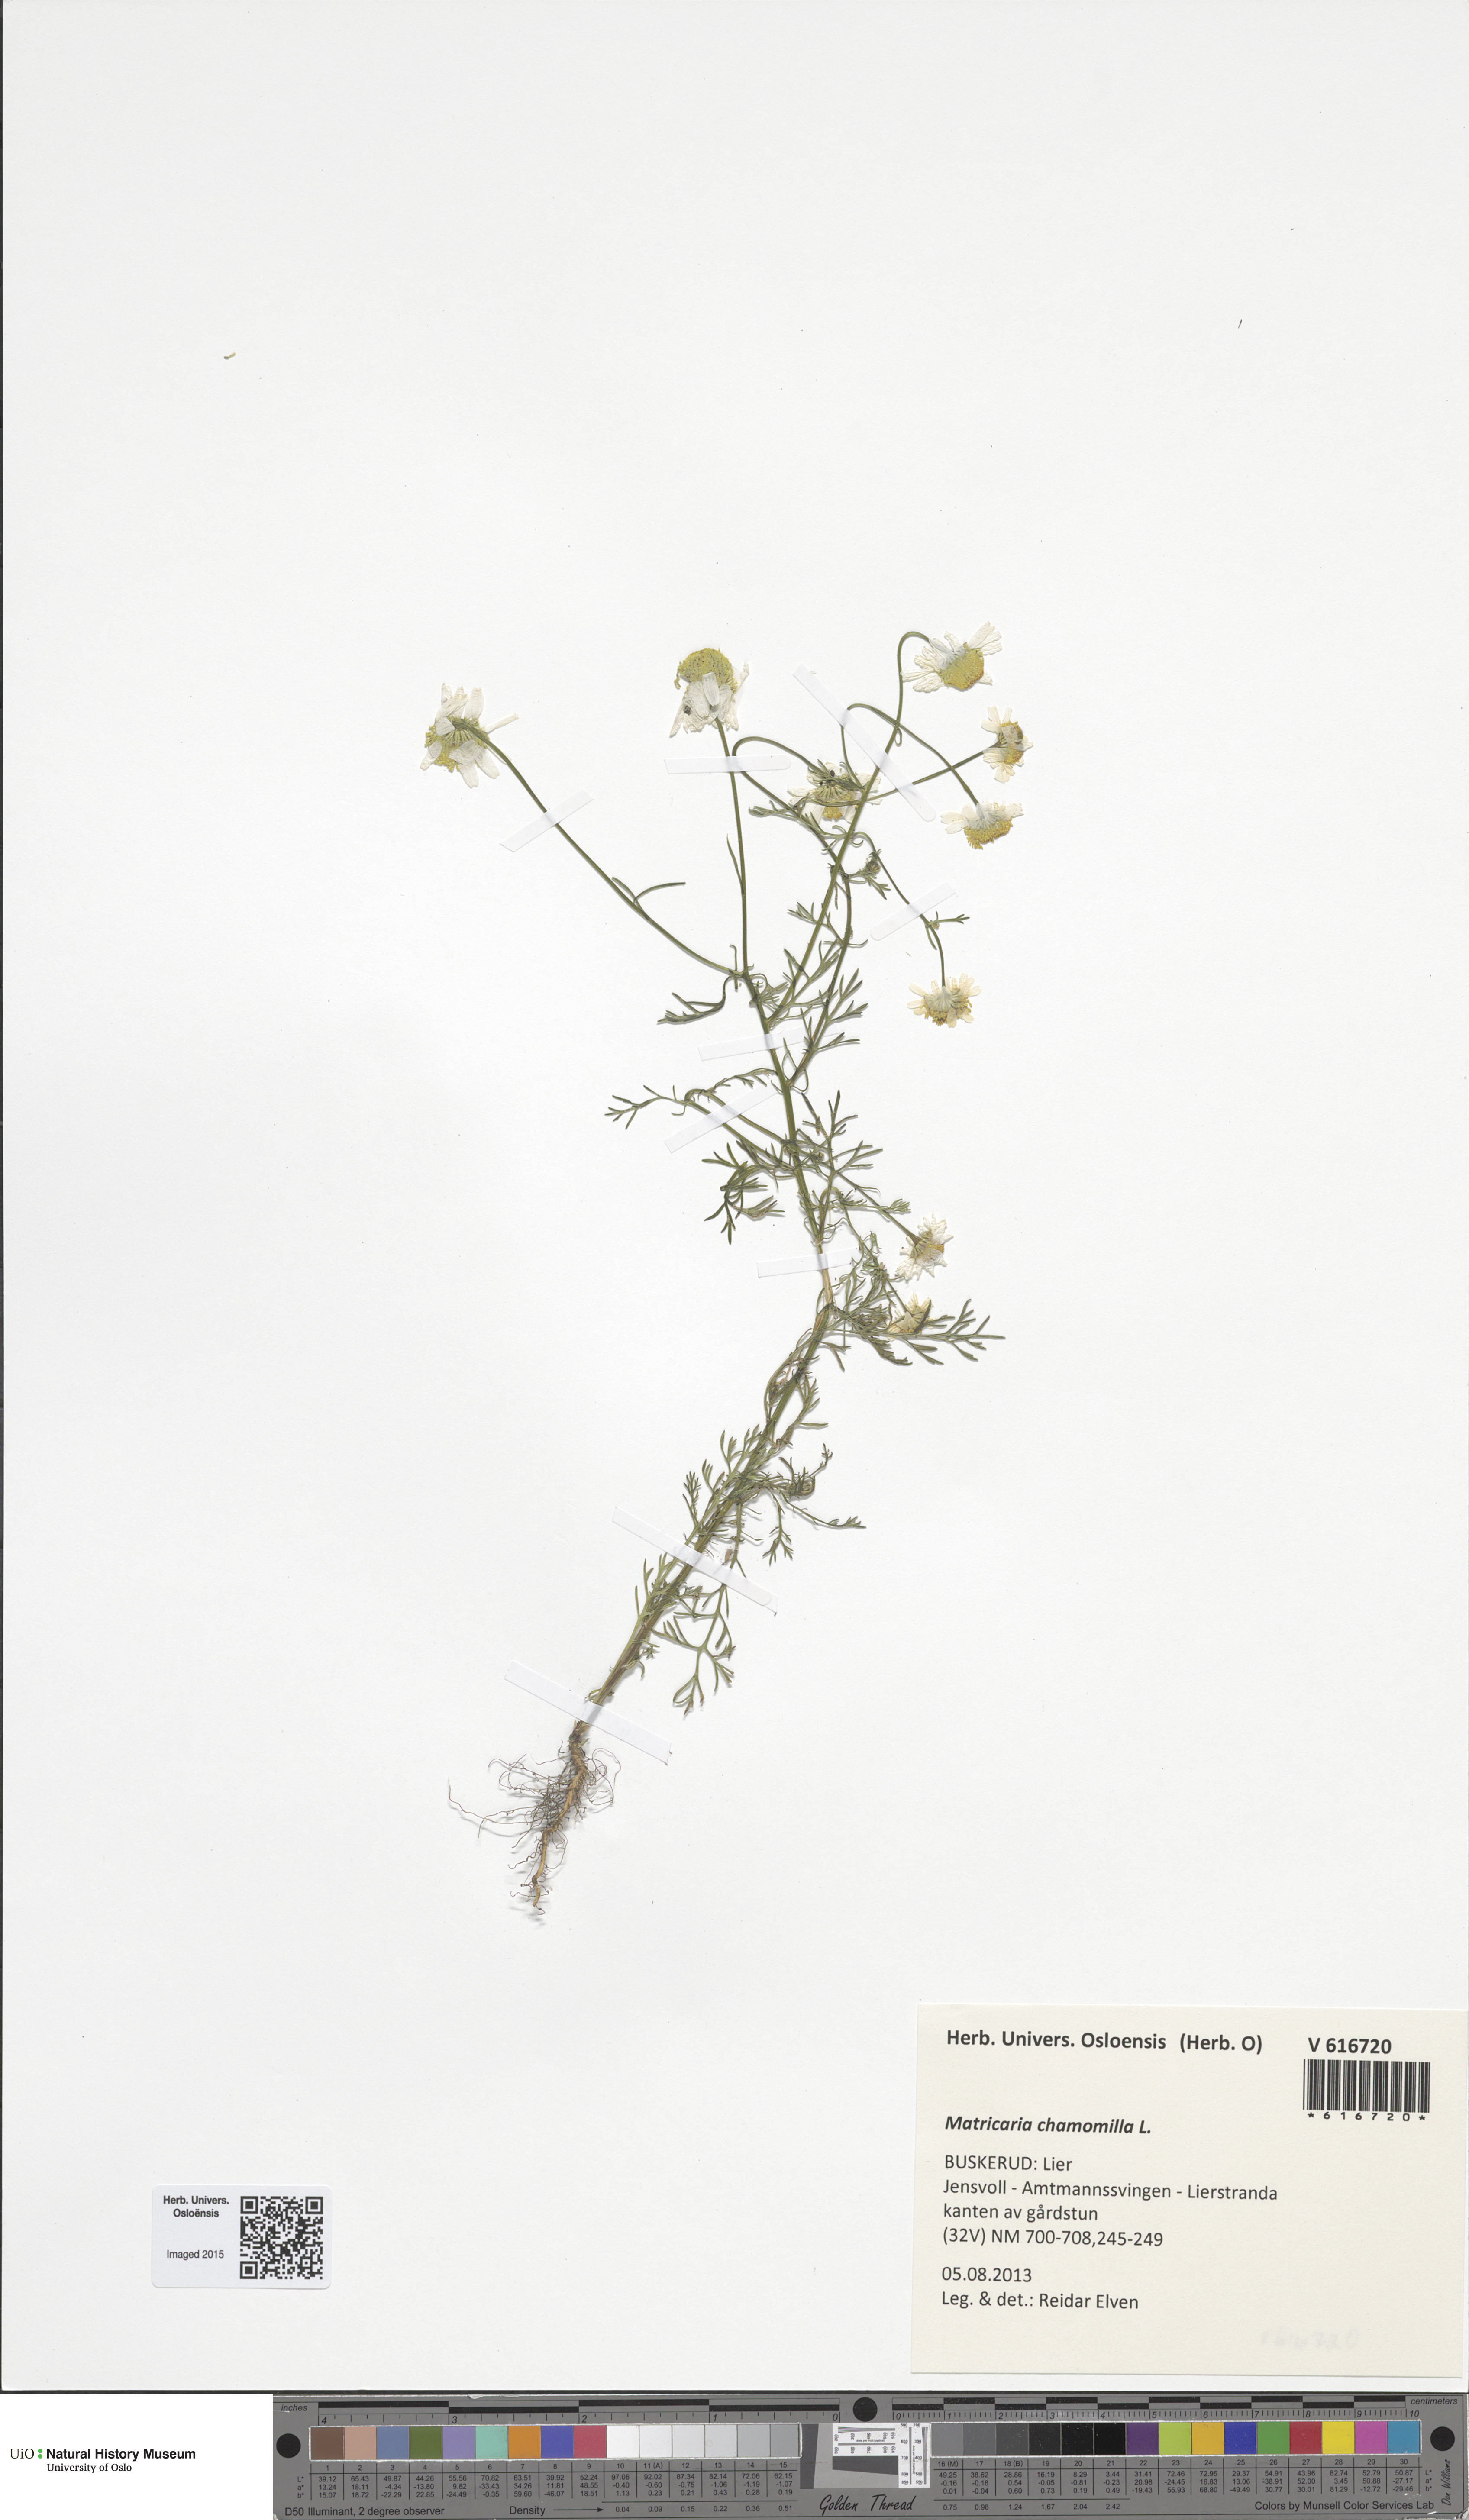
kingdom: Plantae
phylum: Tracheophyta
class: Magnoliopsida
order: Asterales
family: Asteraceae
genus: Matricaria
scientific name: Matricaria chamomilla
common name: Scented mayweed
